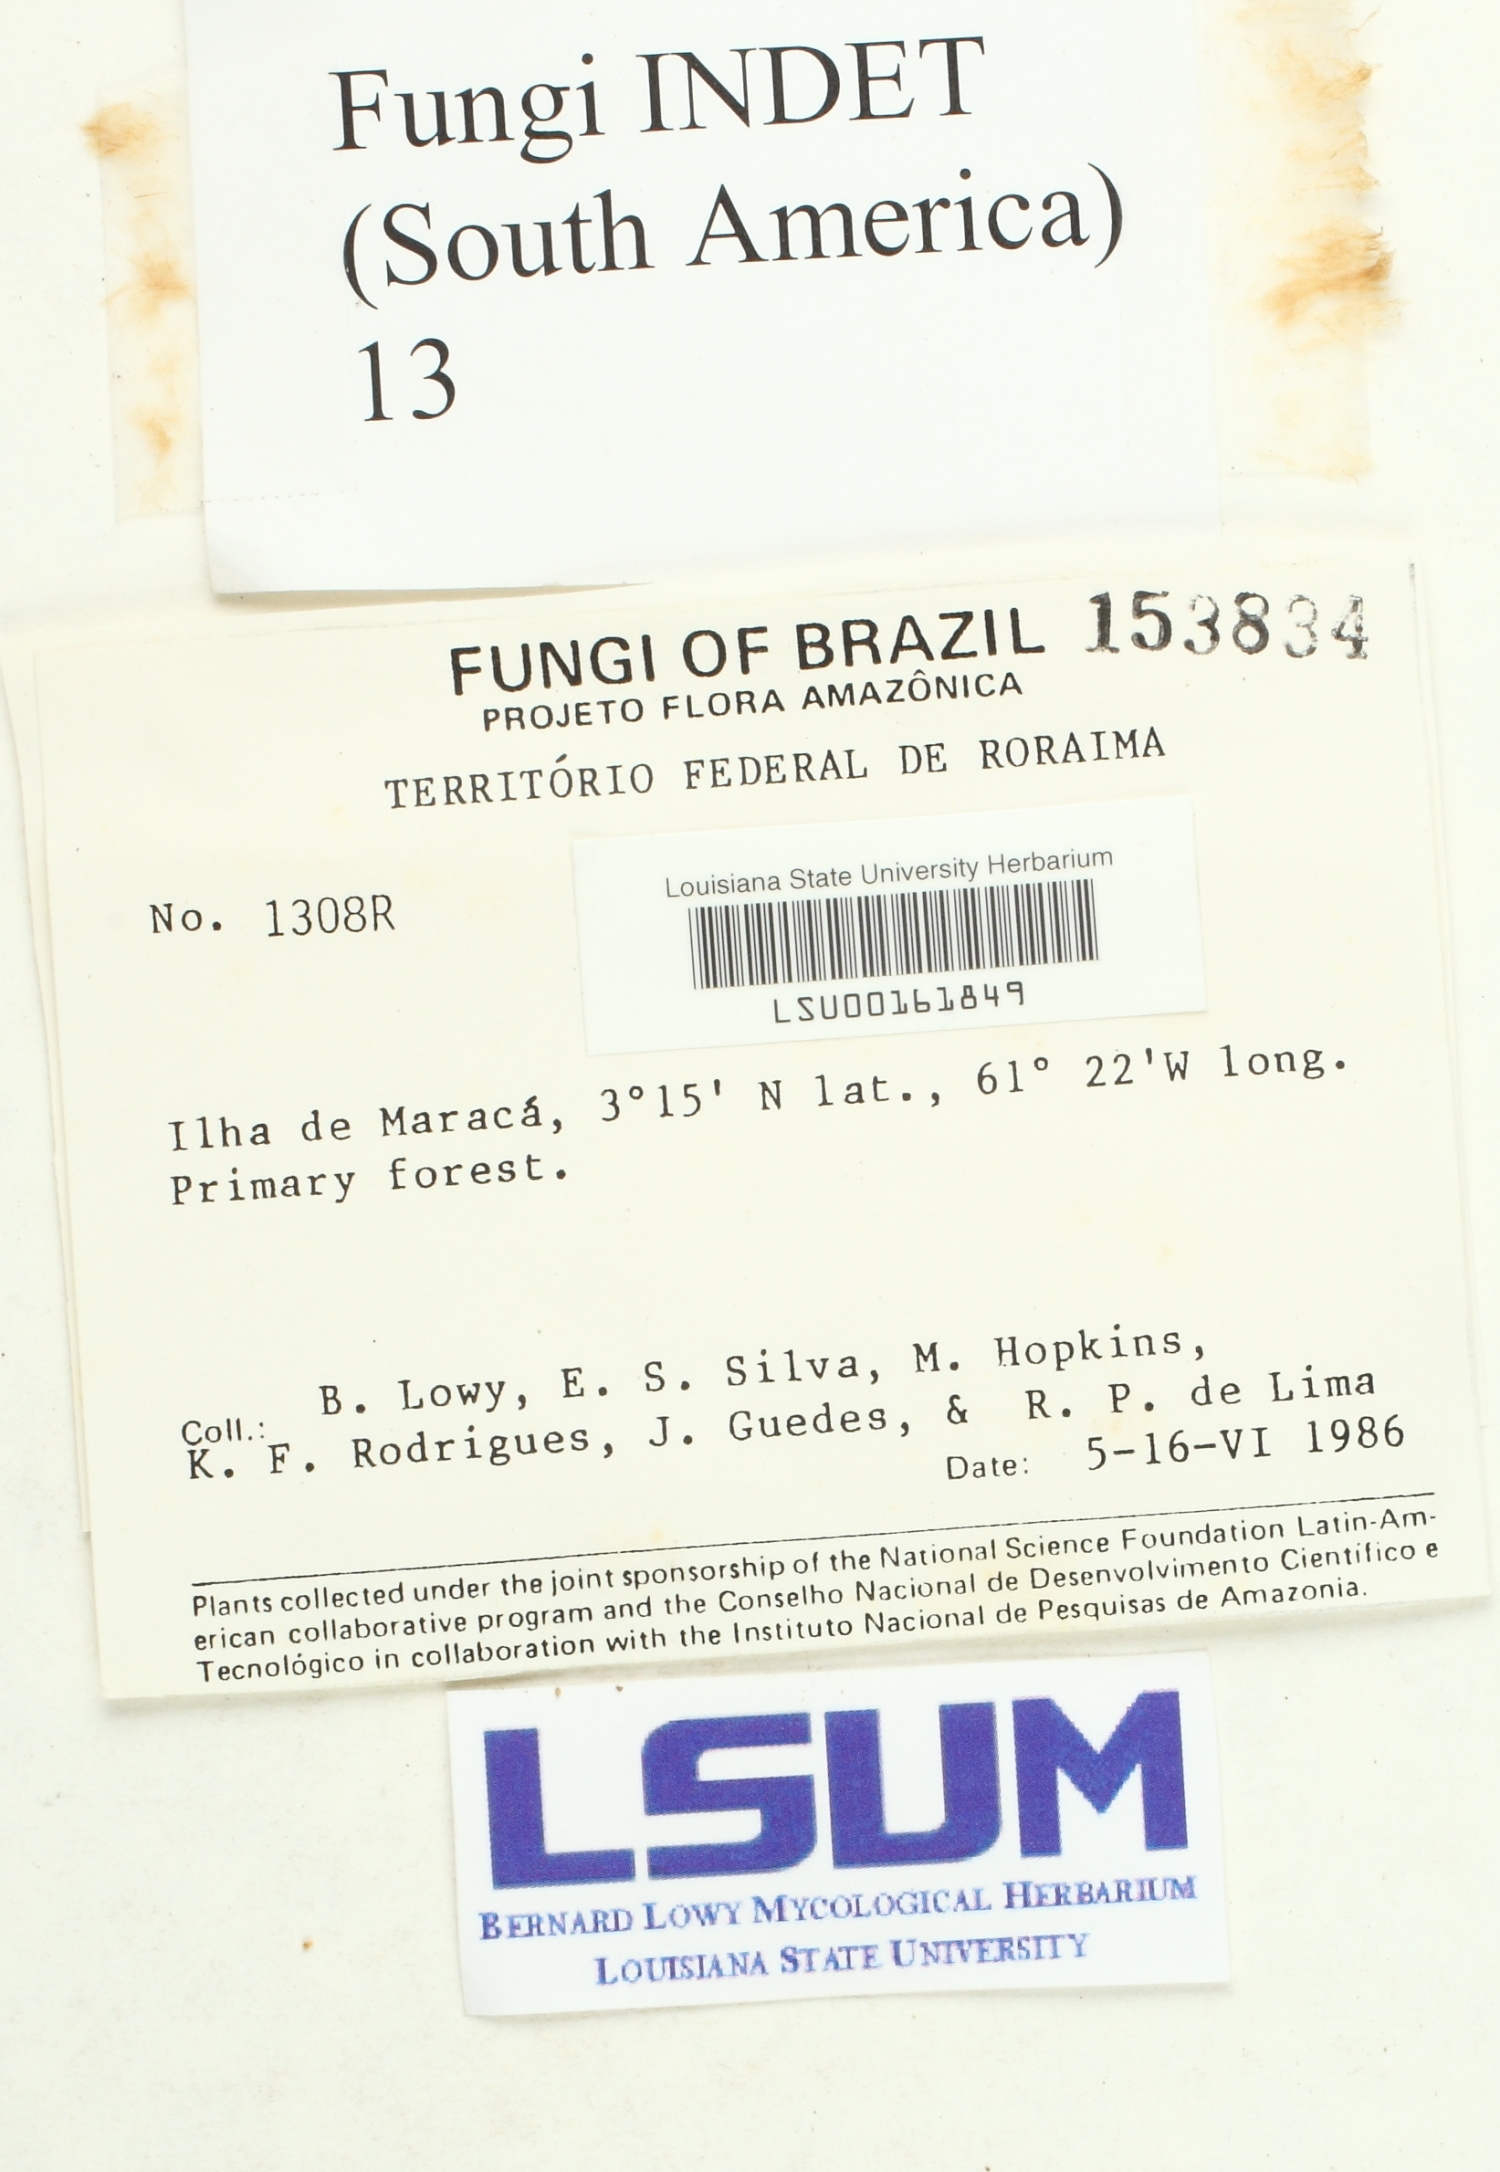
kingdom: Fungi
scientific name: Fungi
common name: Fungi
